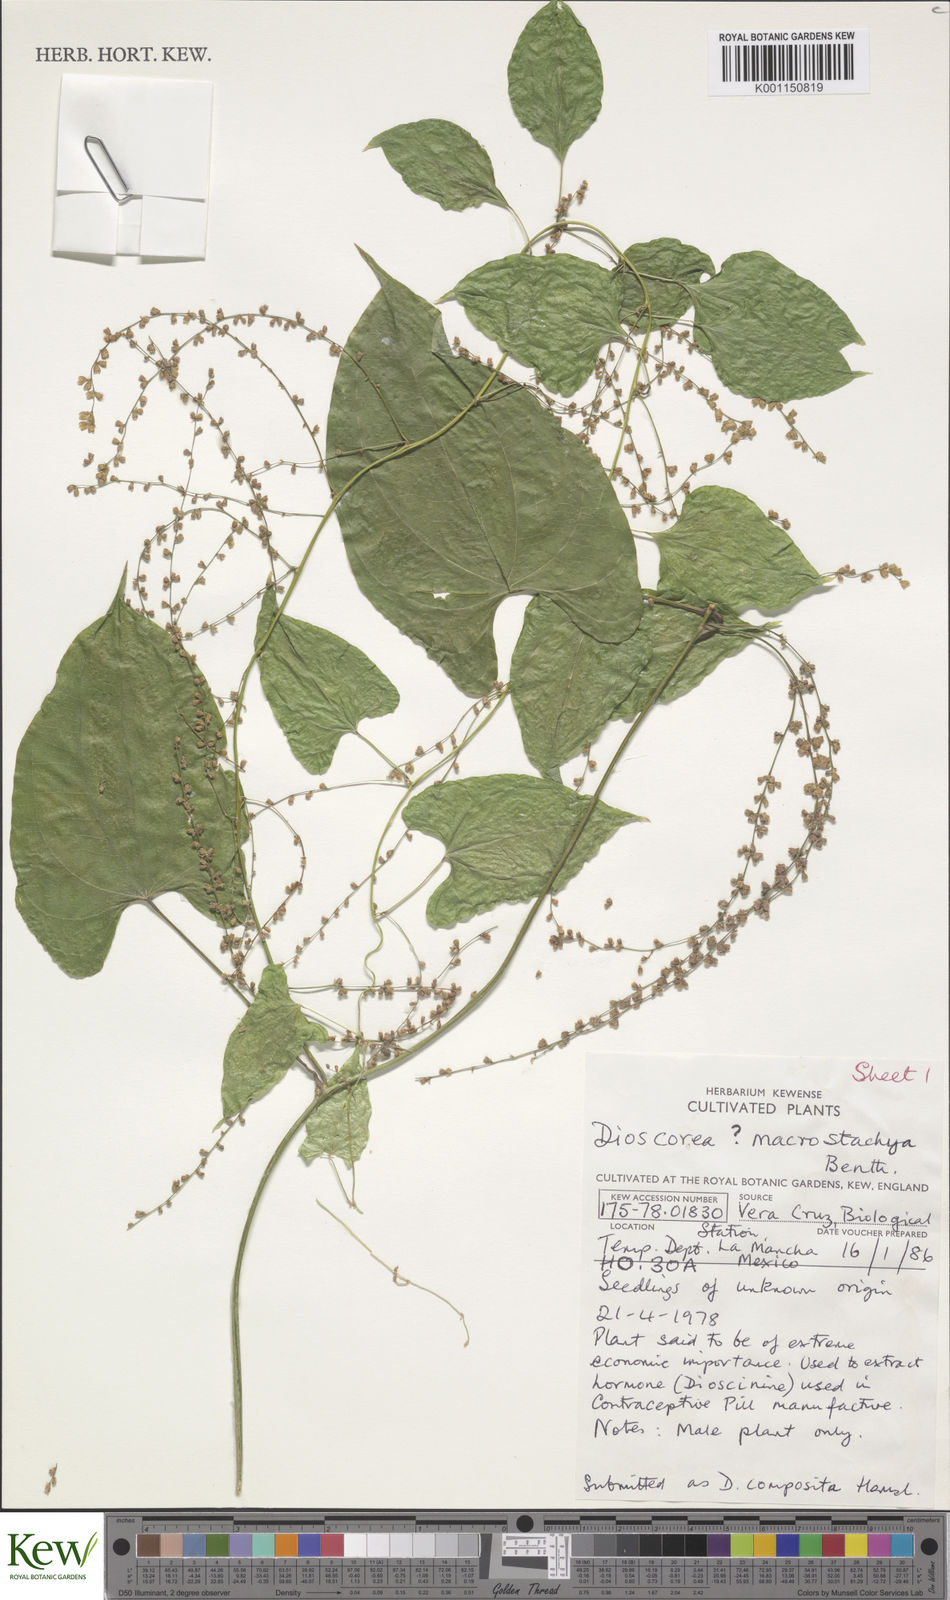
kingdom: Plantae
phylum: Tracheophyta
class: Liliopsida
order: Dioscoreales
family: Dioscoreaceae
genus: Dioscorea
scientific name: Dioscorea mexicana
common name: Mexican yam
